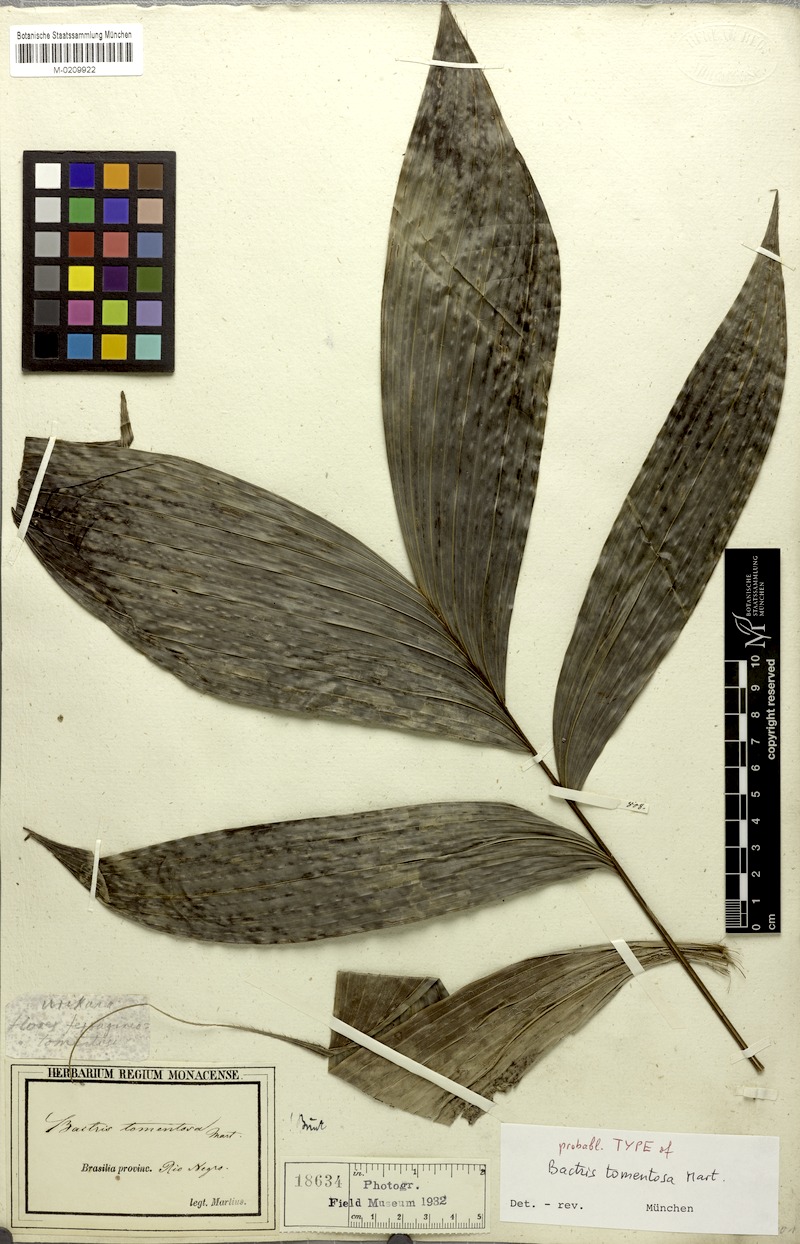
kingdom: Plantae
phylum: Tracheophyta
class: Liliopsida
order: Arecales
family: Arecaceae
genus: Bactris
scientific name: Bactris tomentosa
